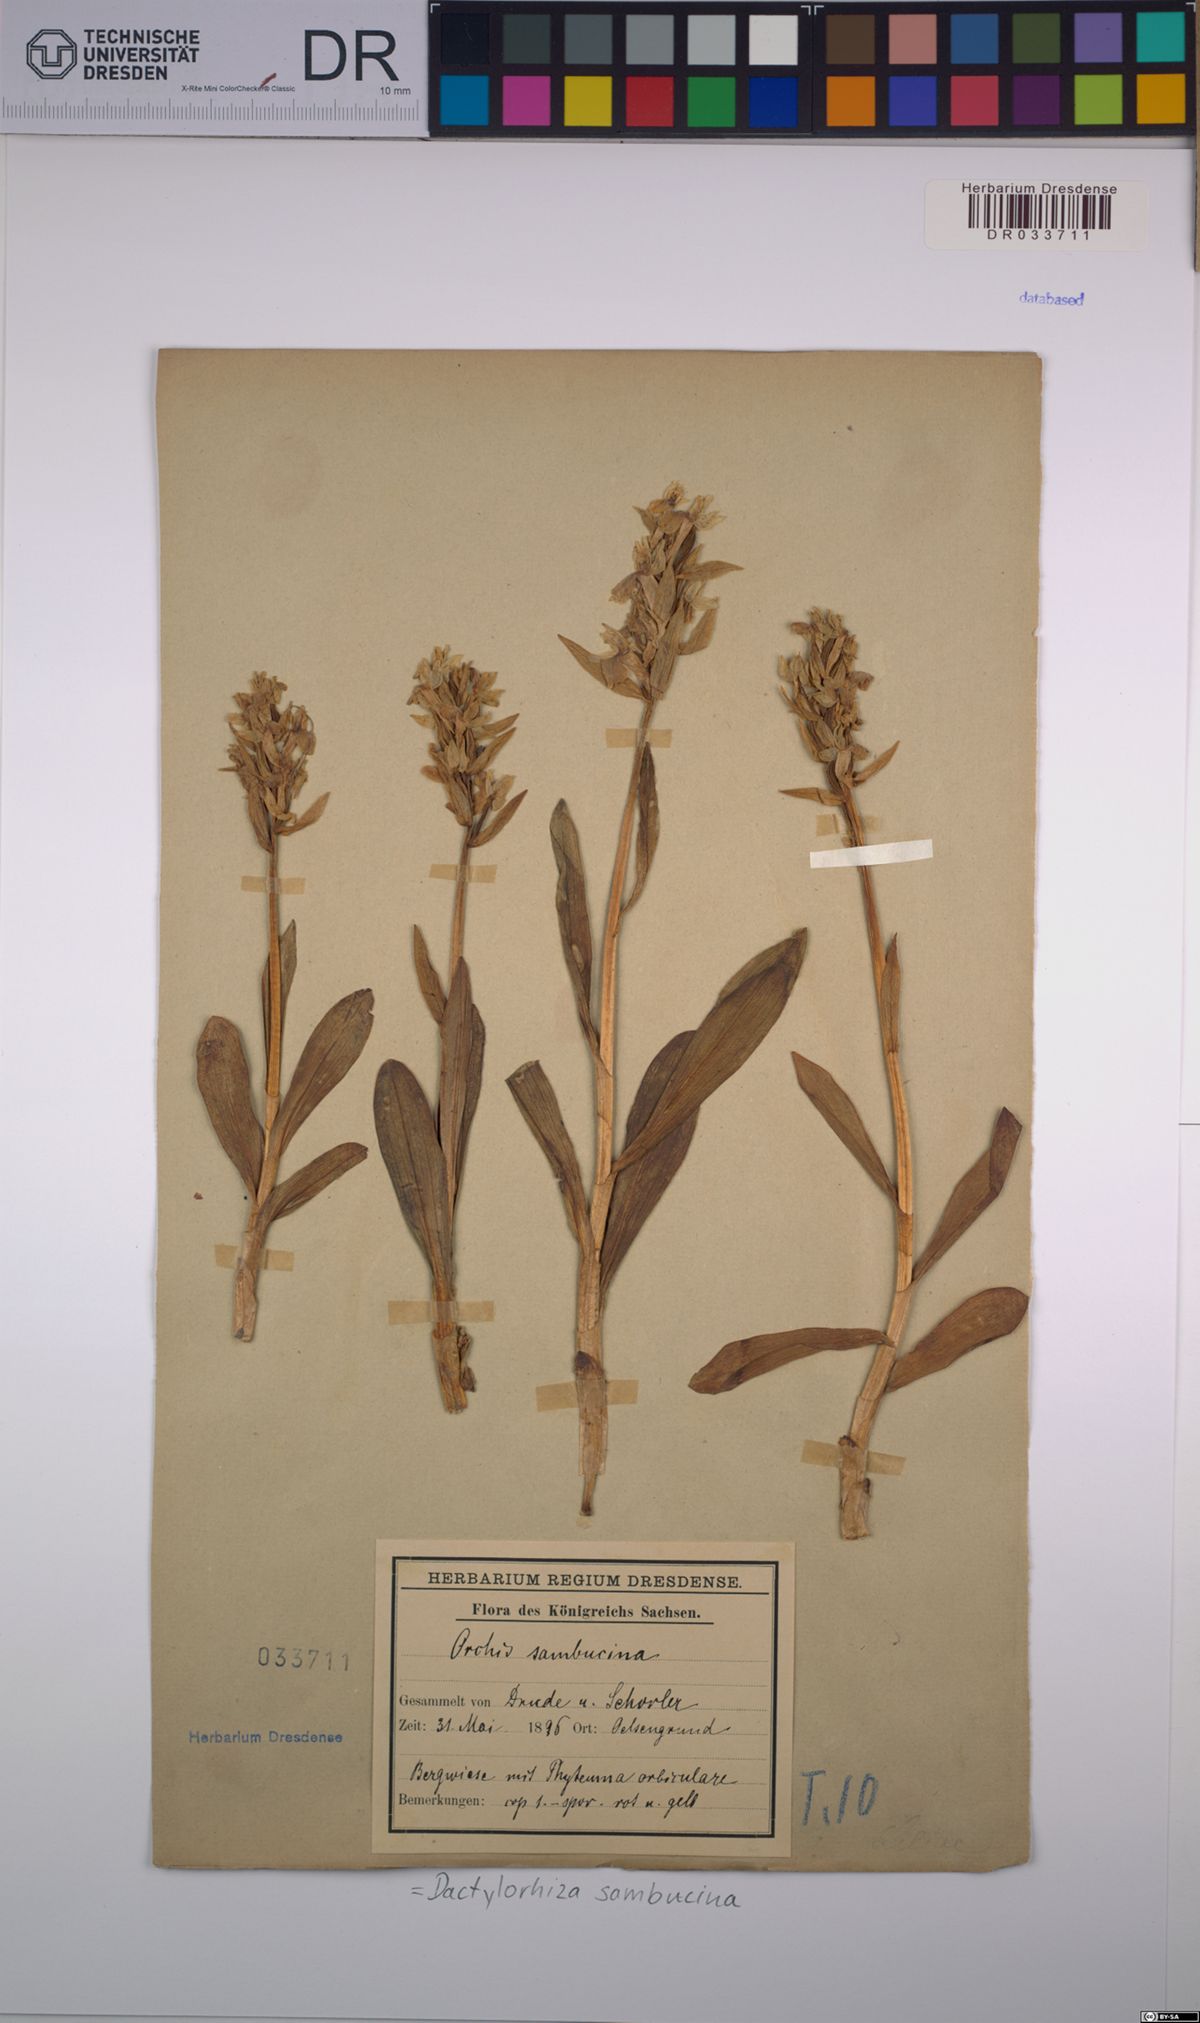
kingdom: Plantae
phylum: Tracheophyta
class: Liliopsida
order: Asparagales
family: Orchidaceae
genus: Dactylorhiza
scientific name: Dactylorhiza sambucina
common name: Elder-flowered orchid
